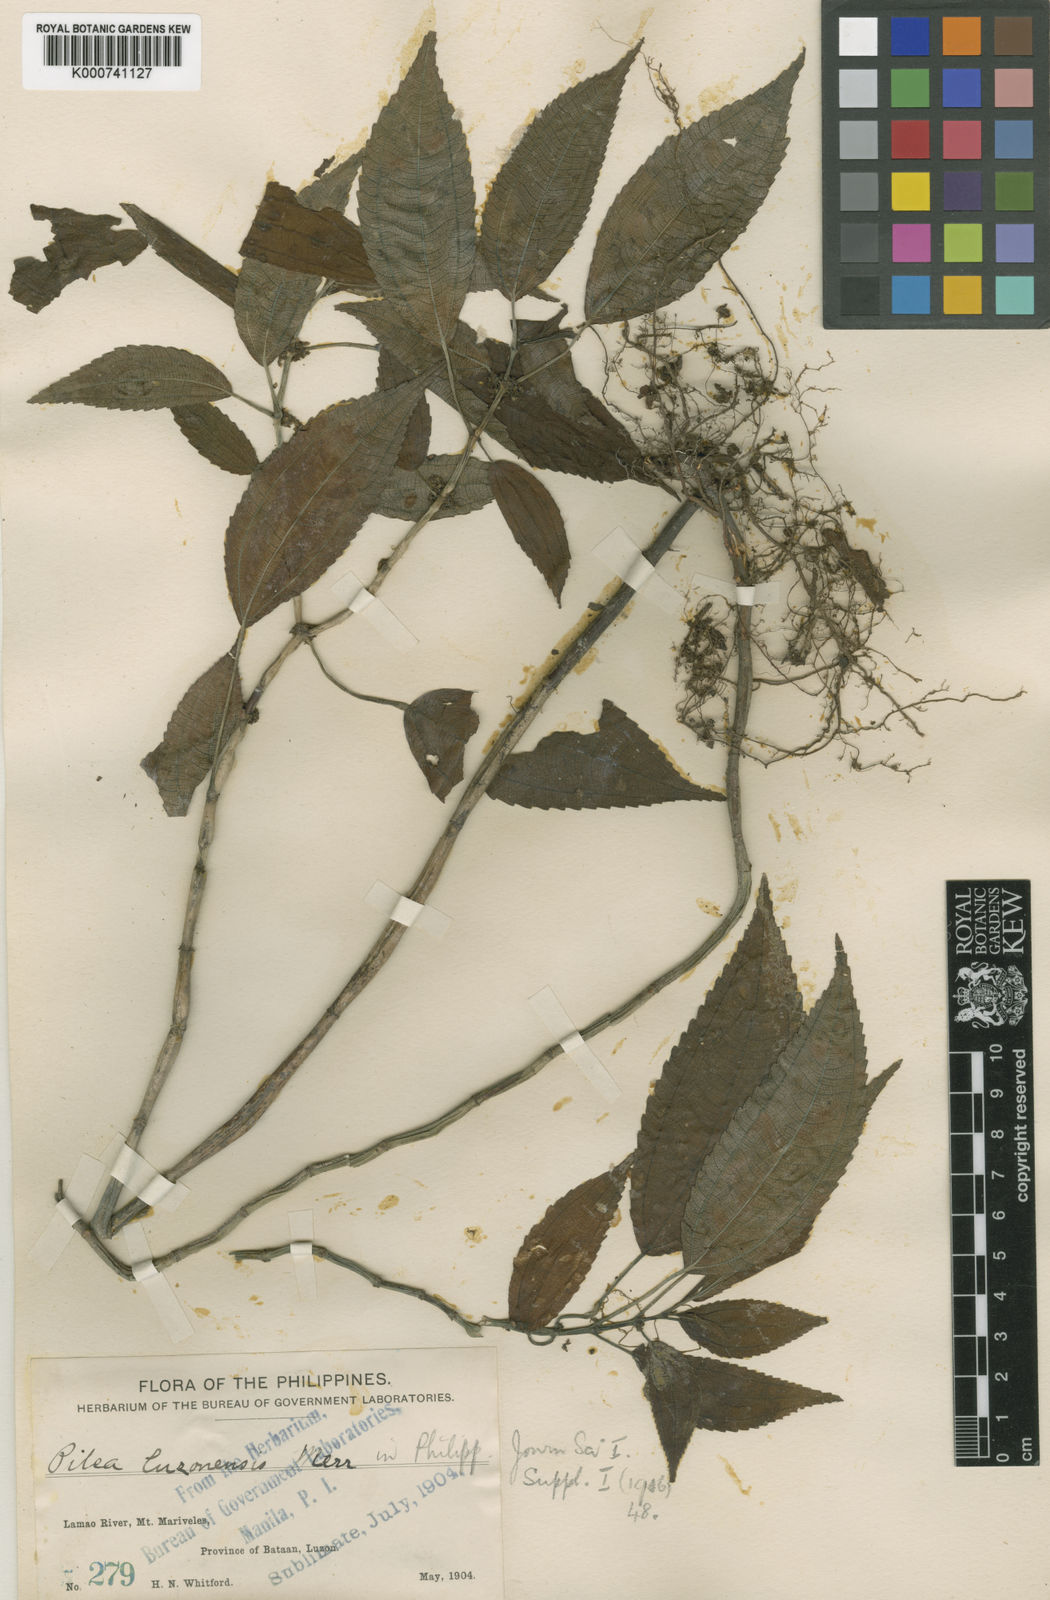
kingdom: Plantae
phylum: Tracheophyta
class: Magnoliopsida
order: Rosales
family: Urticaceae
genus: Pilea
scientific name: Pilea luzonensis
